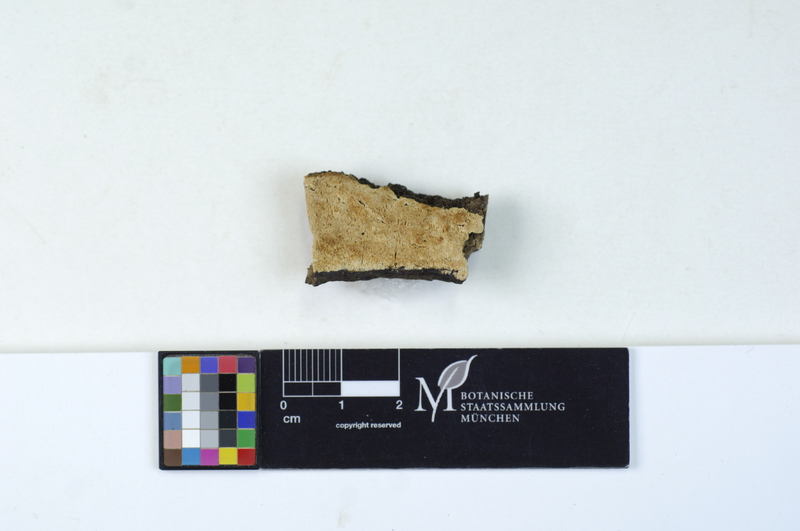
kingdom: Plantae
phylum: Tracheophyta
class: Magnoliopsida
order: Malpighiales
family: Salicaceae
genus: Populus
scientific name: Populus nigra
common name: Black poplar
